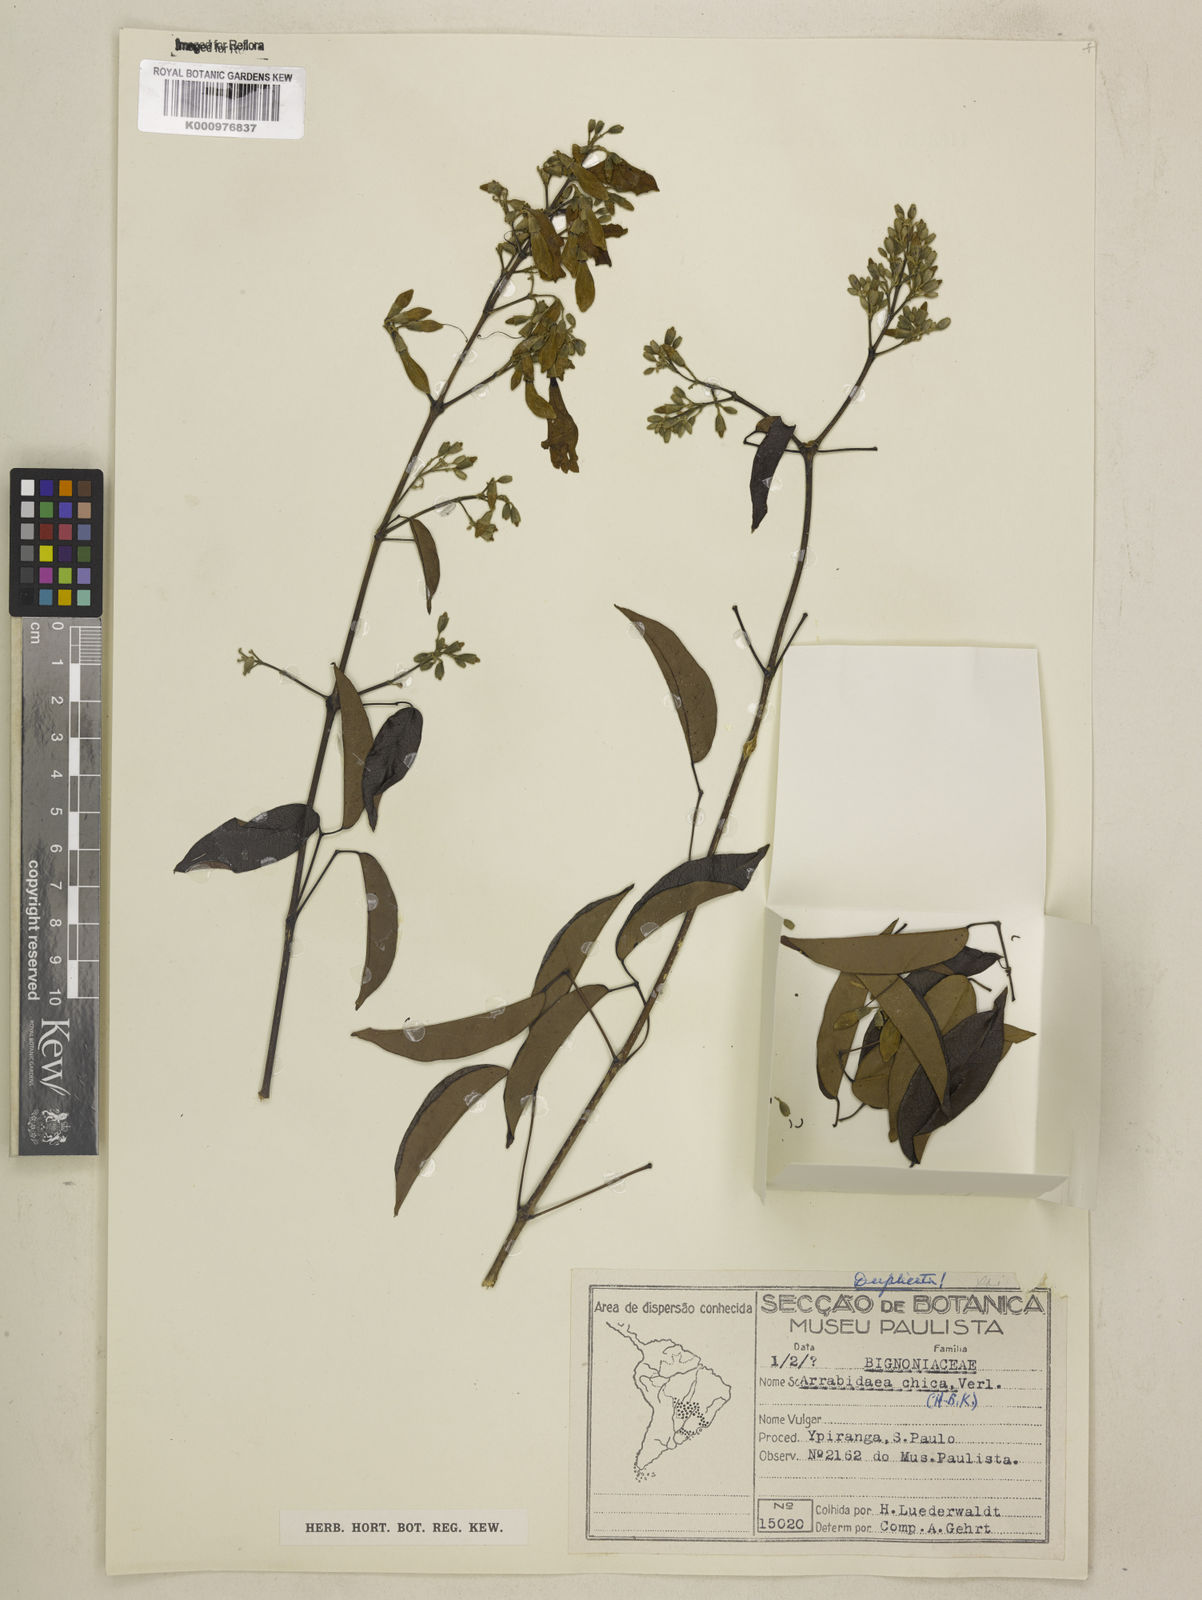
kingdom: Plantae
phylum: Tracheophyta
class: Magnoliopsida
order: Lamiales
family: Bignoniaceae
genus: Fridericia
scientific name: Fridericia chica
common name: Cricketvine
